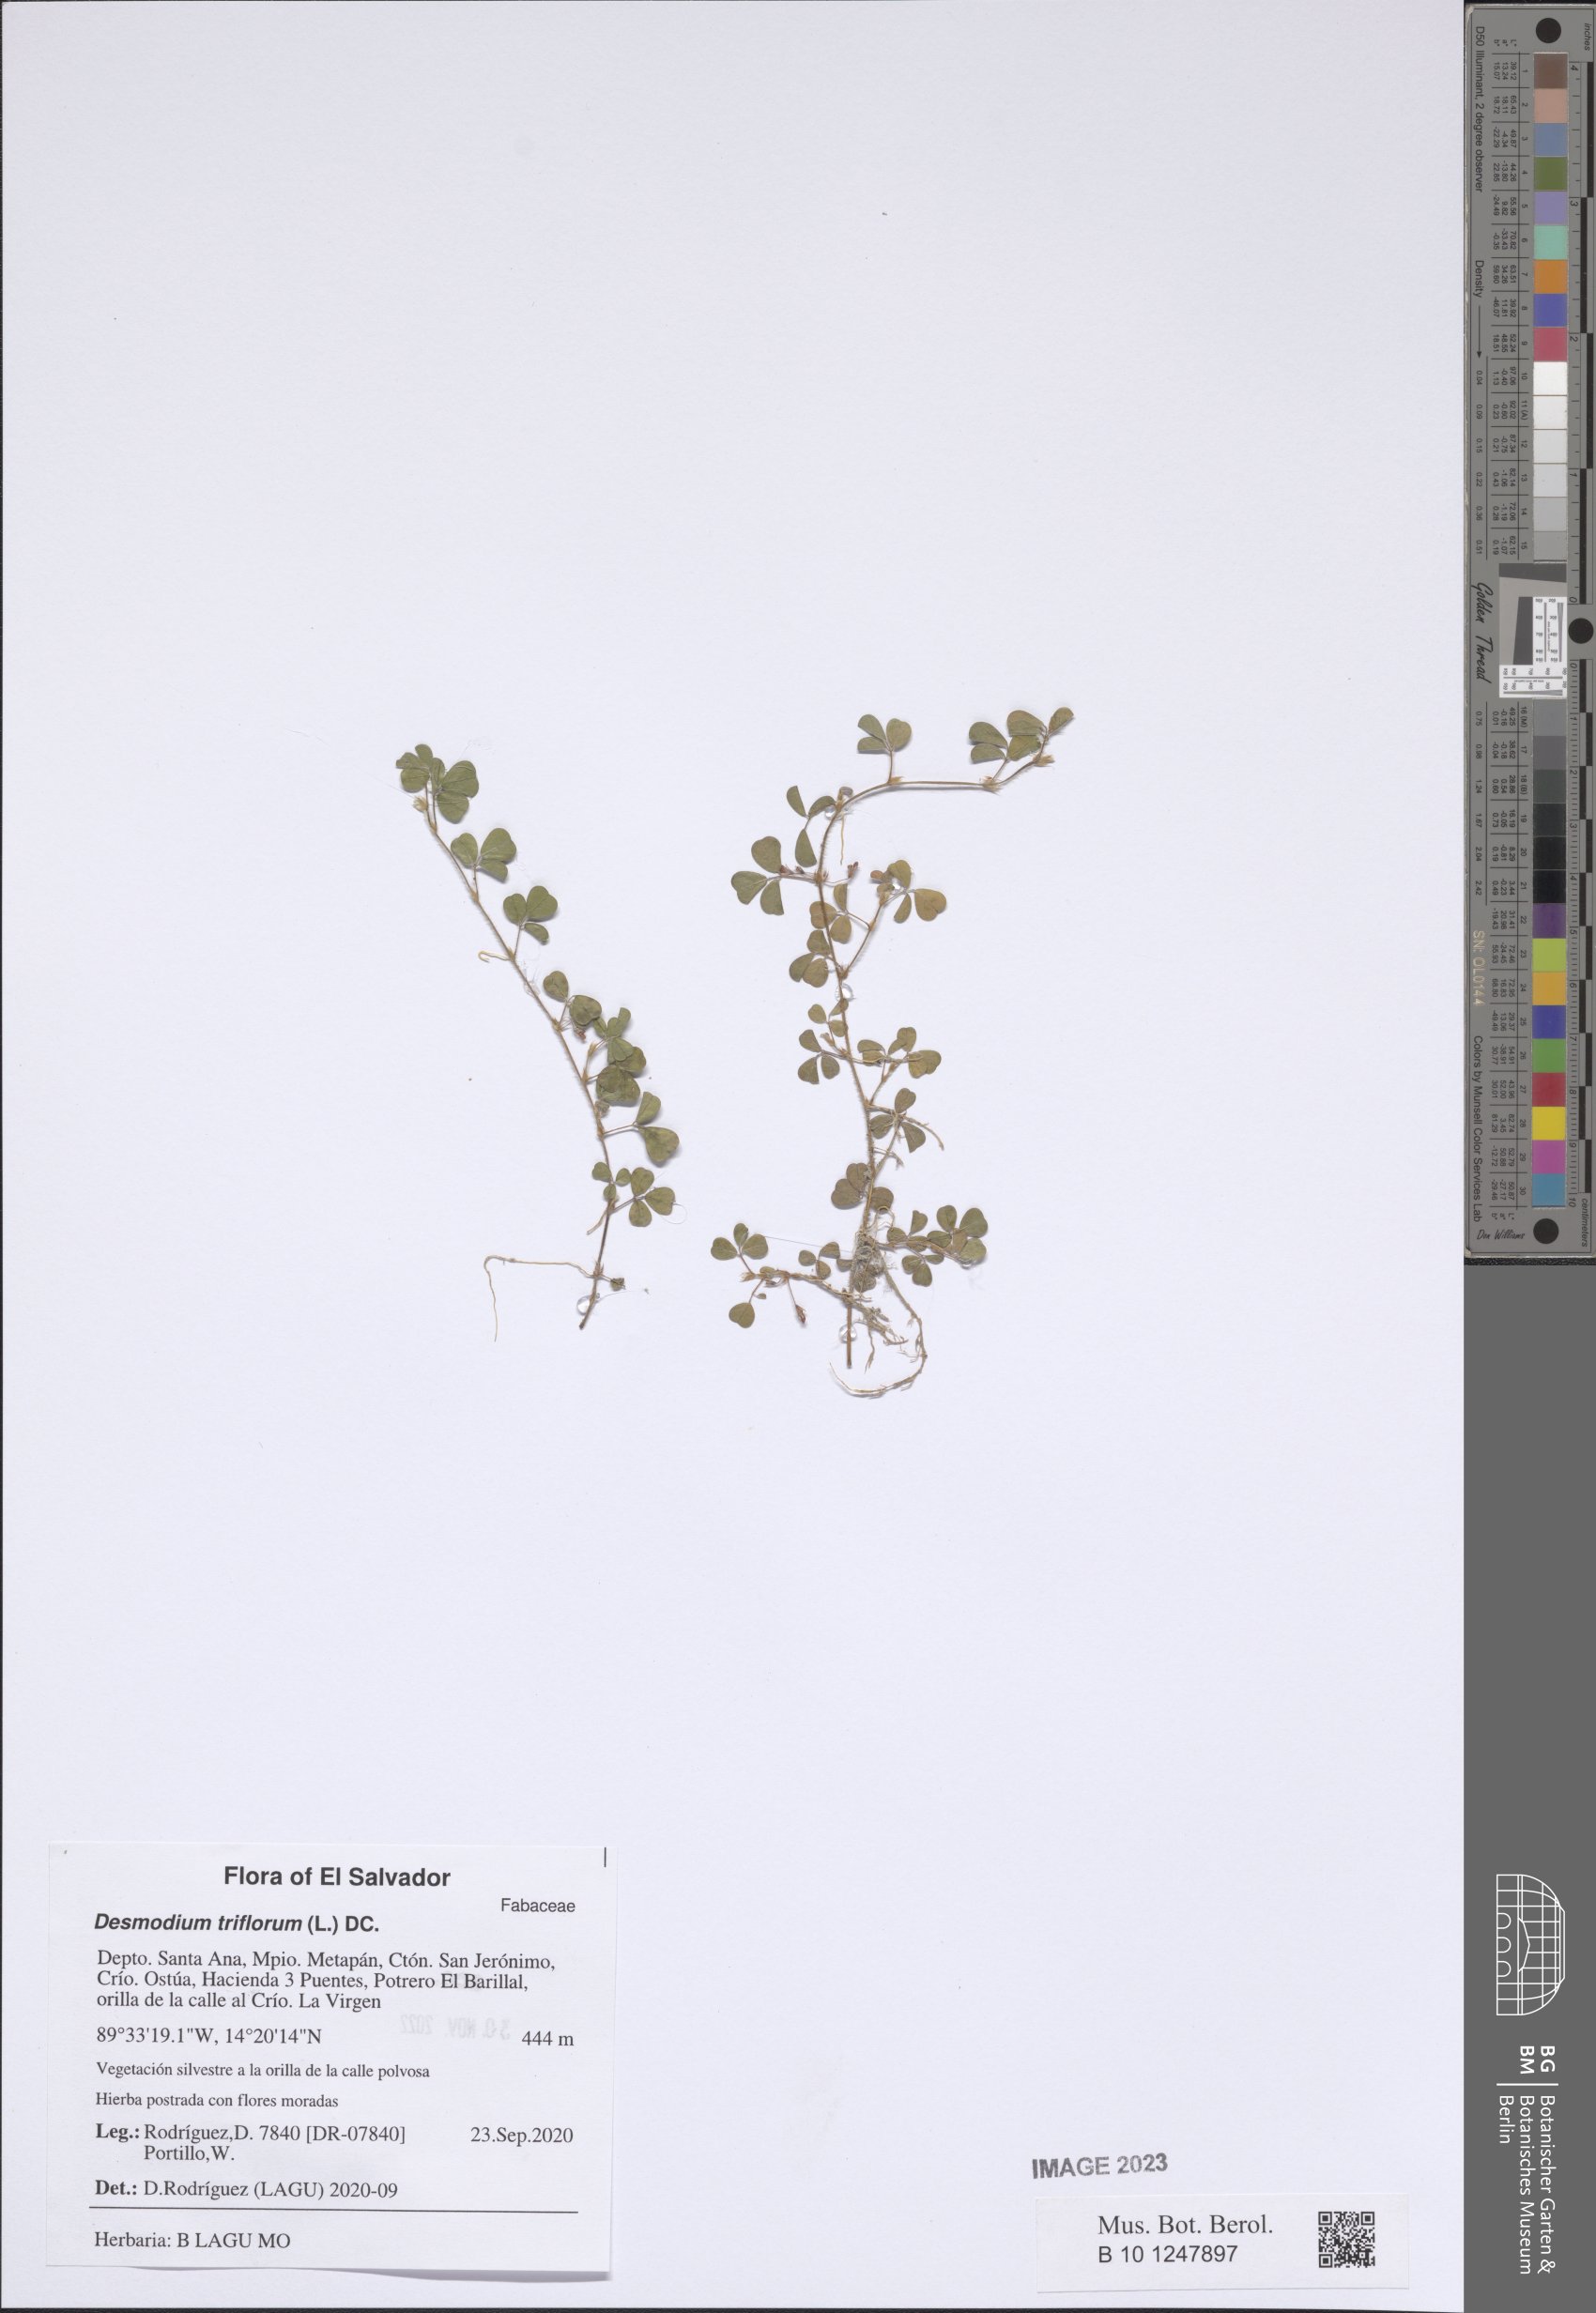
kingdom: Plantae
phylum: Tracheophyta
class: Magnoliopsida
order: Fabales
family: Fabaceae
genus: Grona
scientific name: Grona triflora
